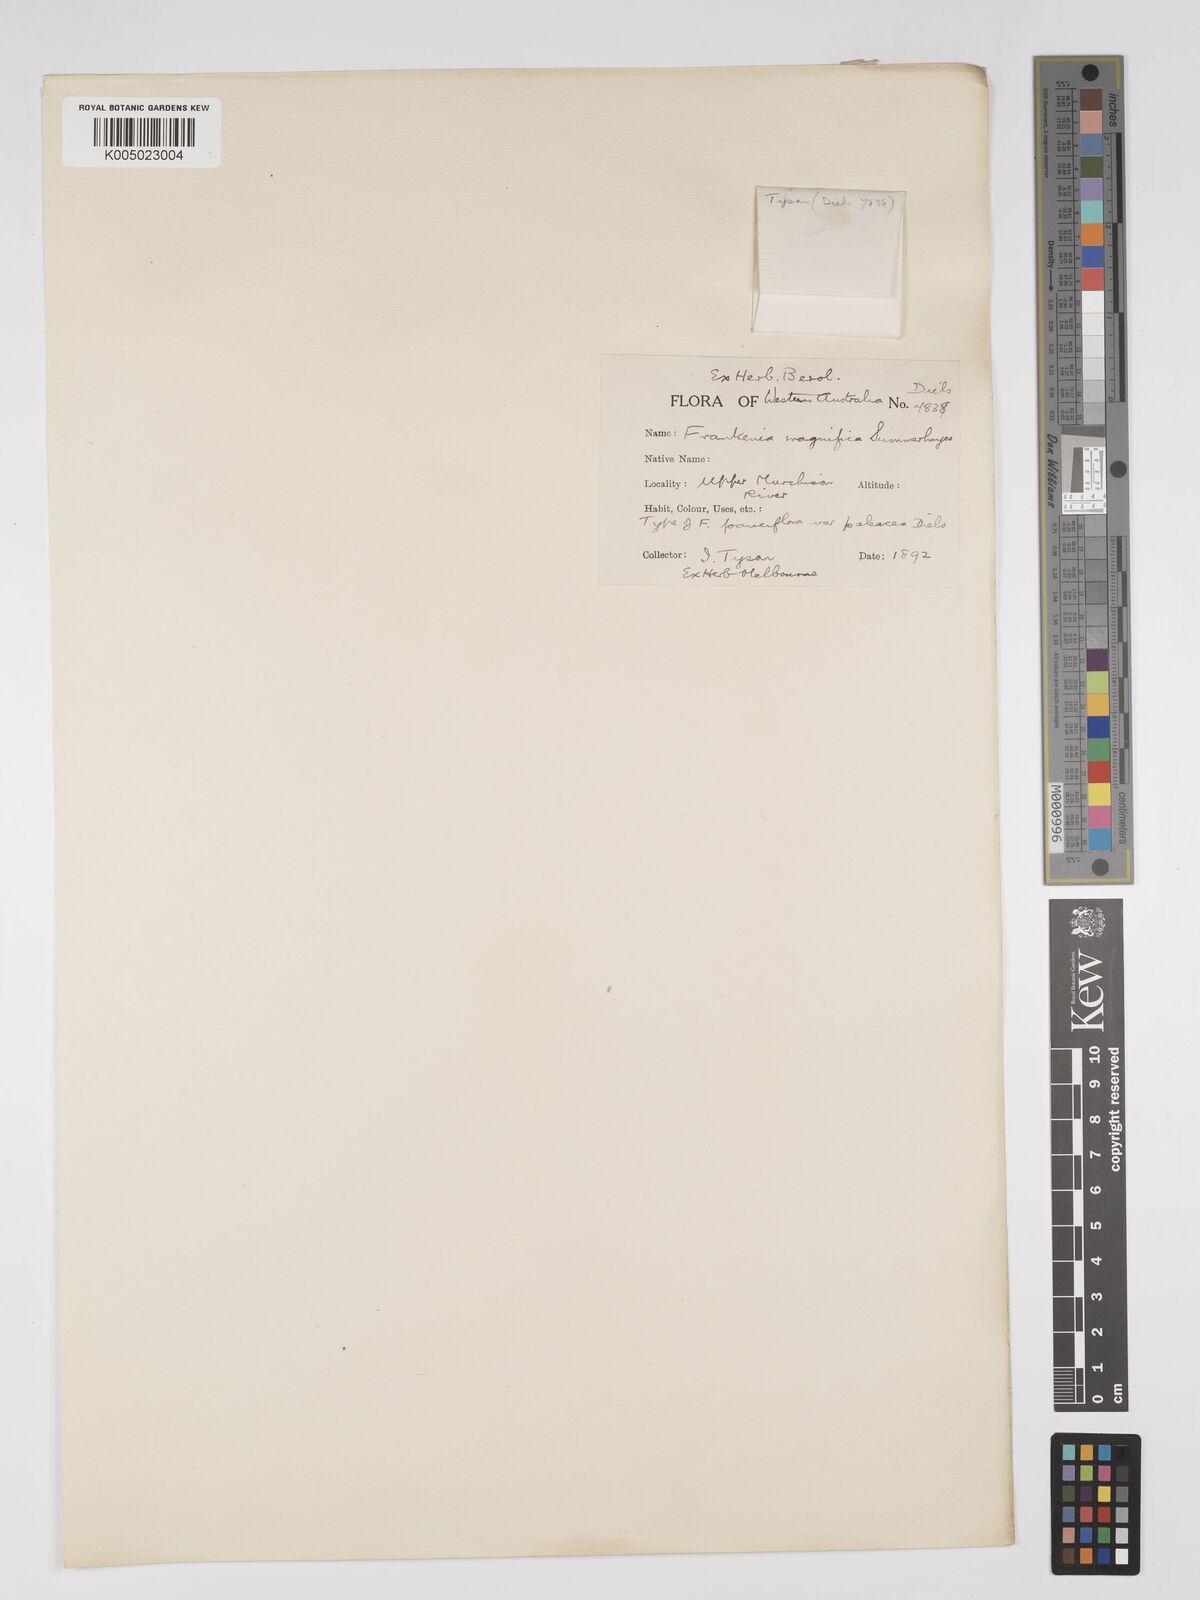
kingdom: Plantae
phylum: Tracheophyta
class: Magnoliopsida
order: Caryophyllales
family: Frankeniaceae
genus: Frankenia
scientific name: Frankenia magnifica
